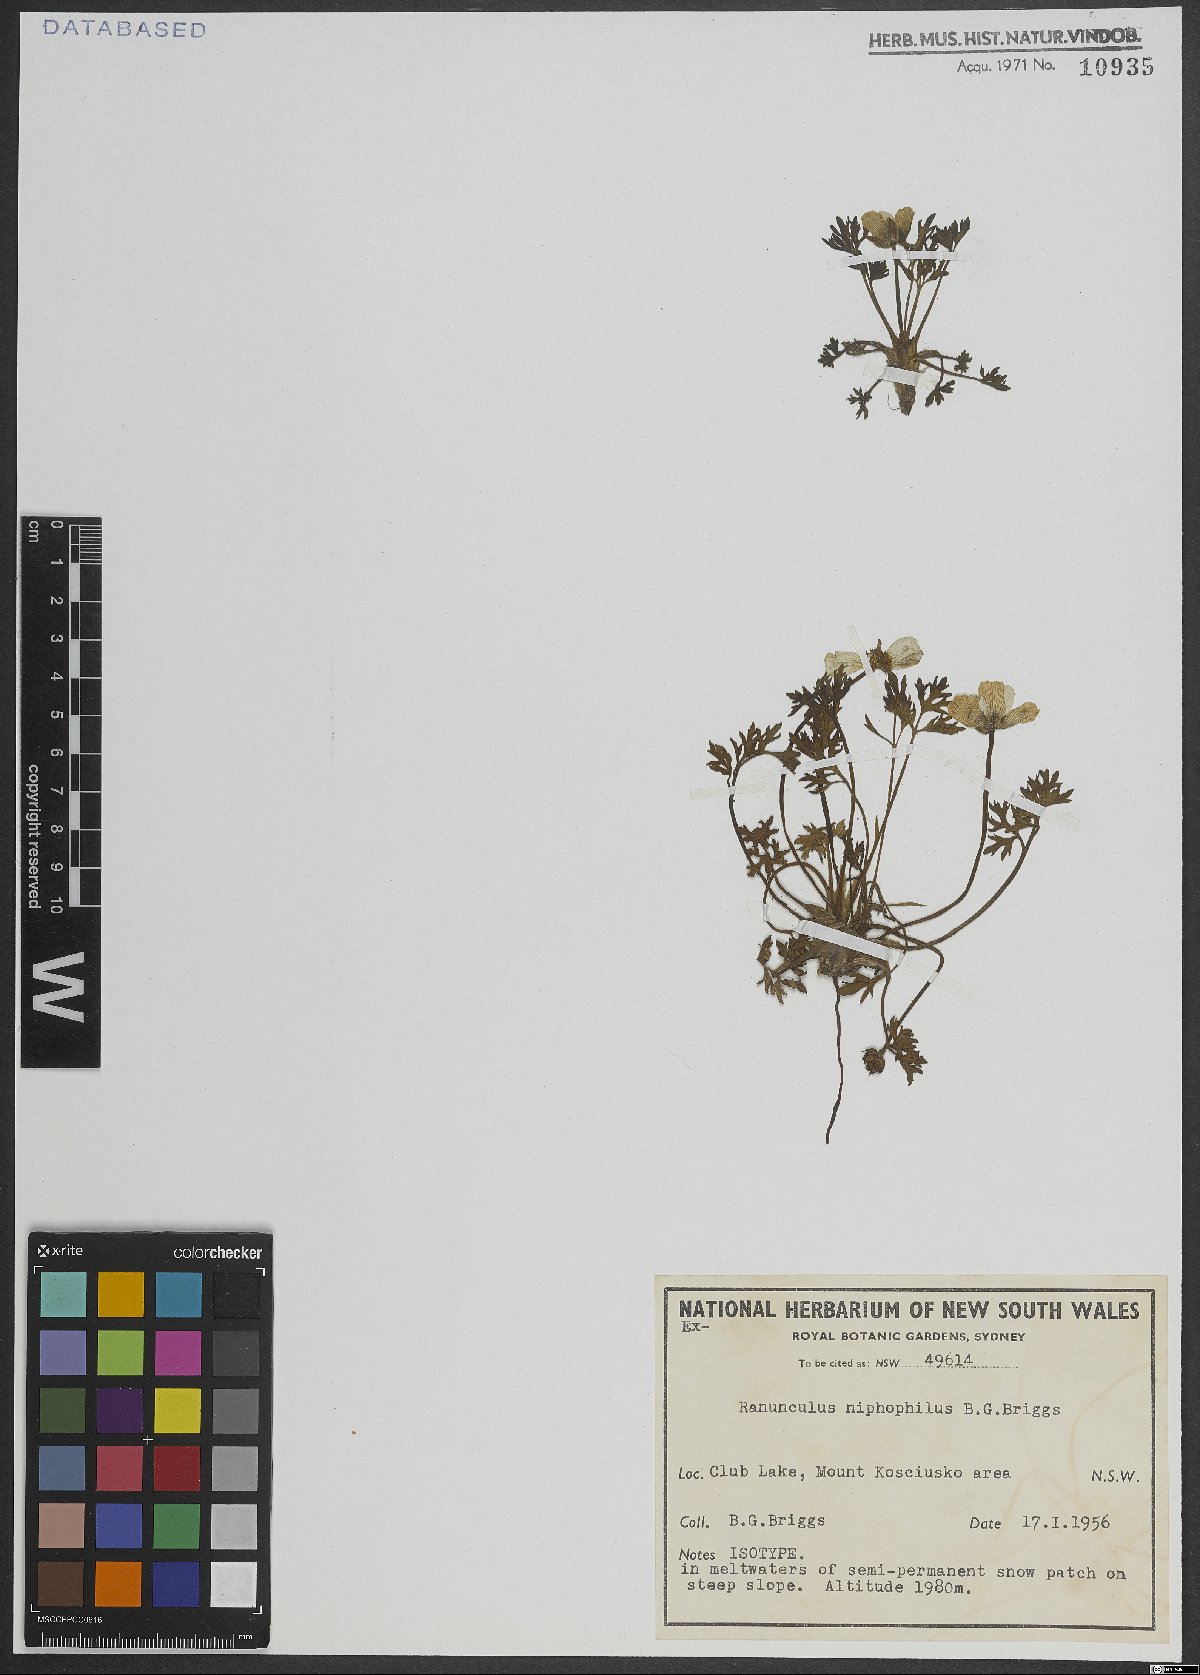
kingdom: Plantae
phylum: Tracheophyta
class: Magnoliopsida
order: Ranunculales
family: Ranunculaceae
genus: Ranunculus
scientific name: Ranunculus niphophilus
